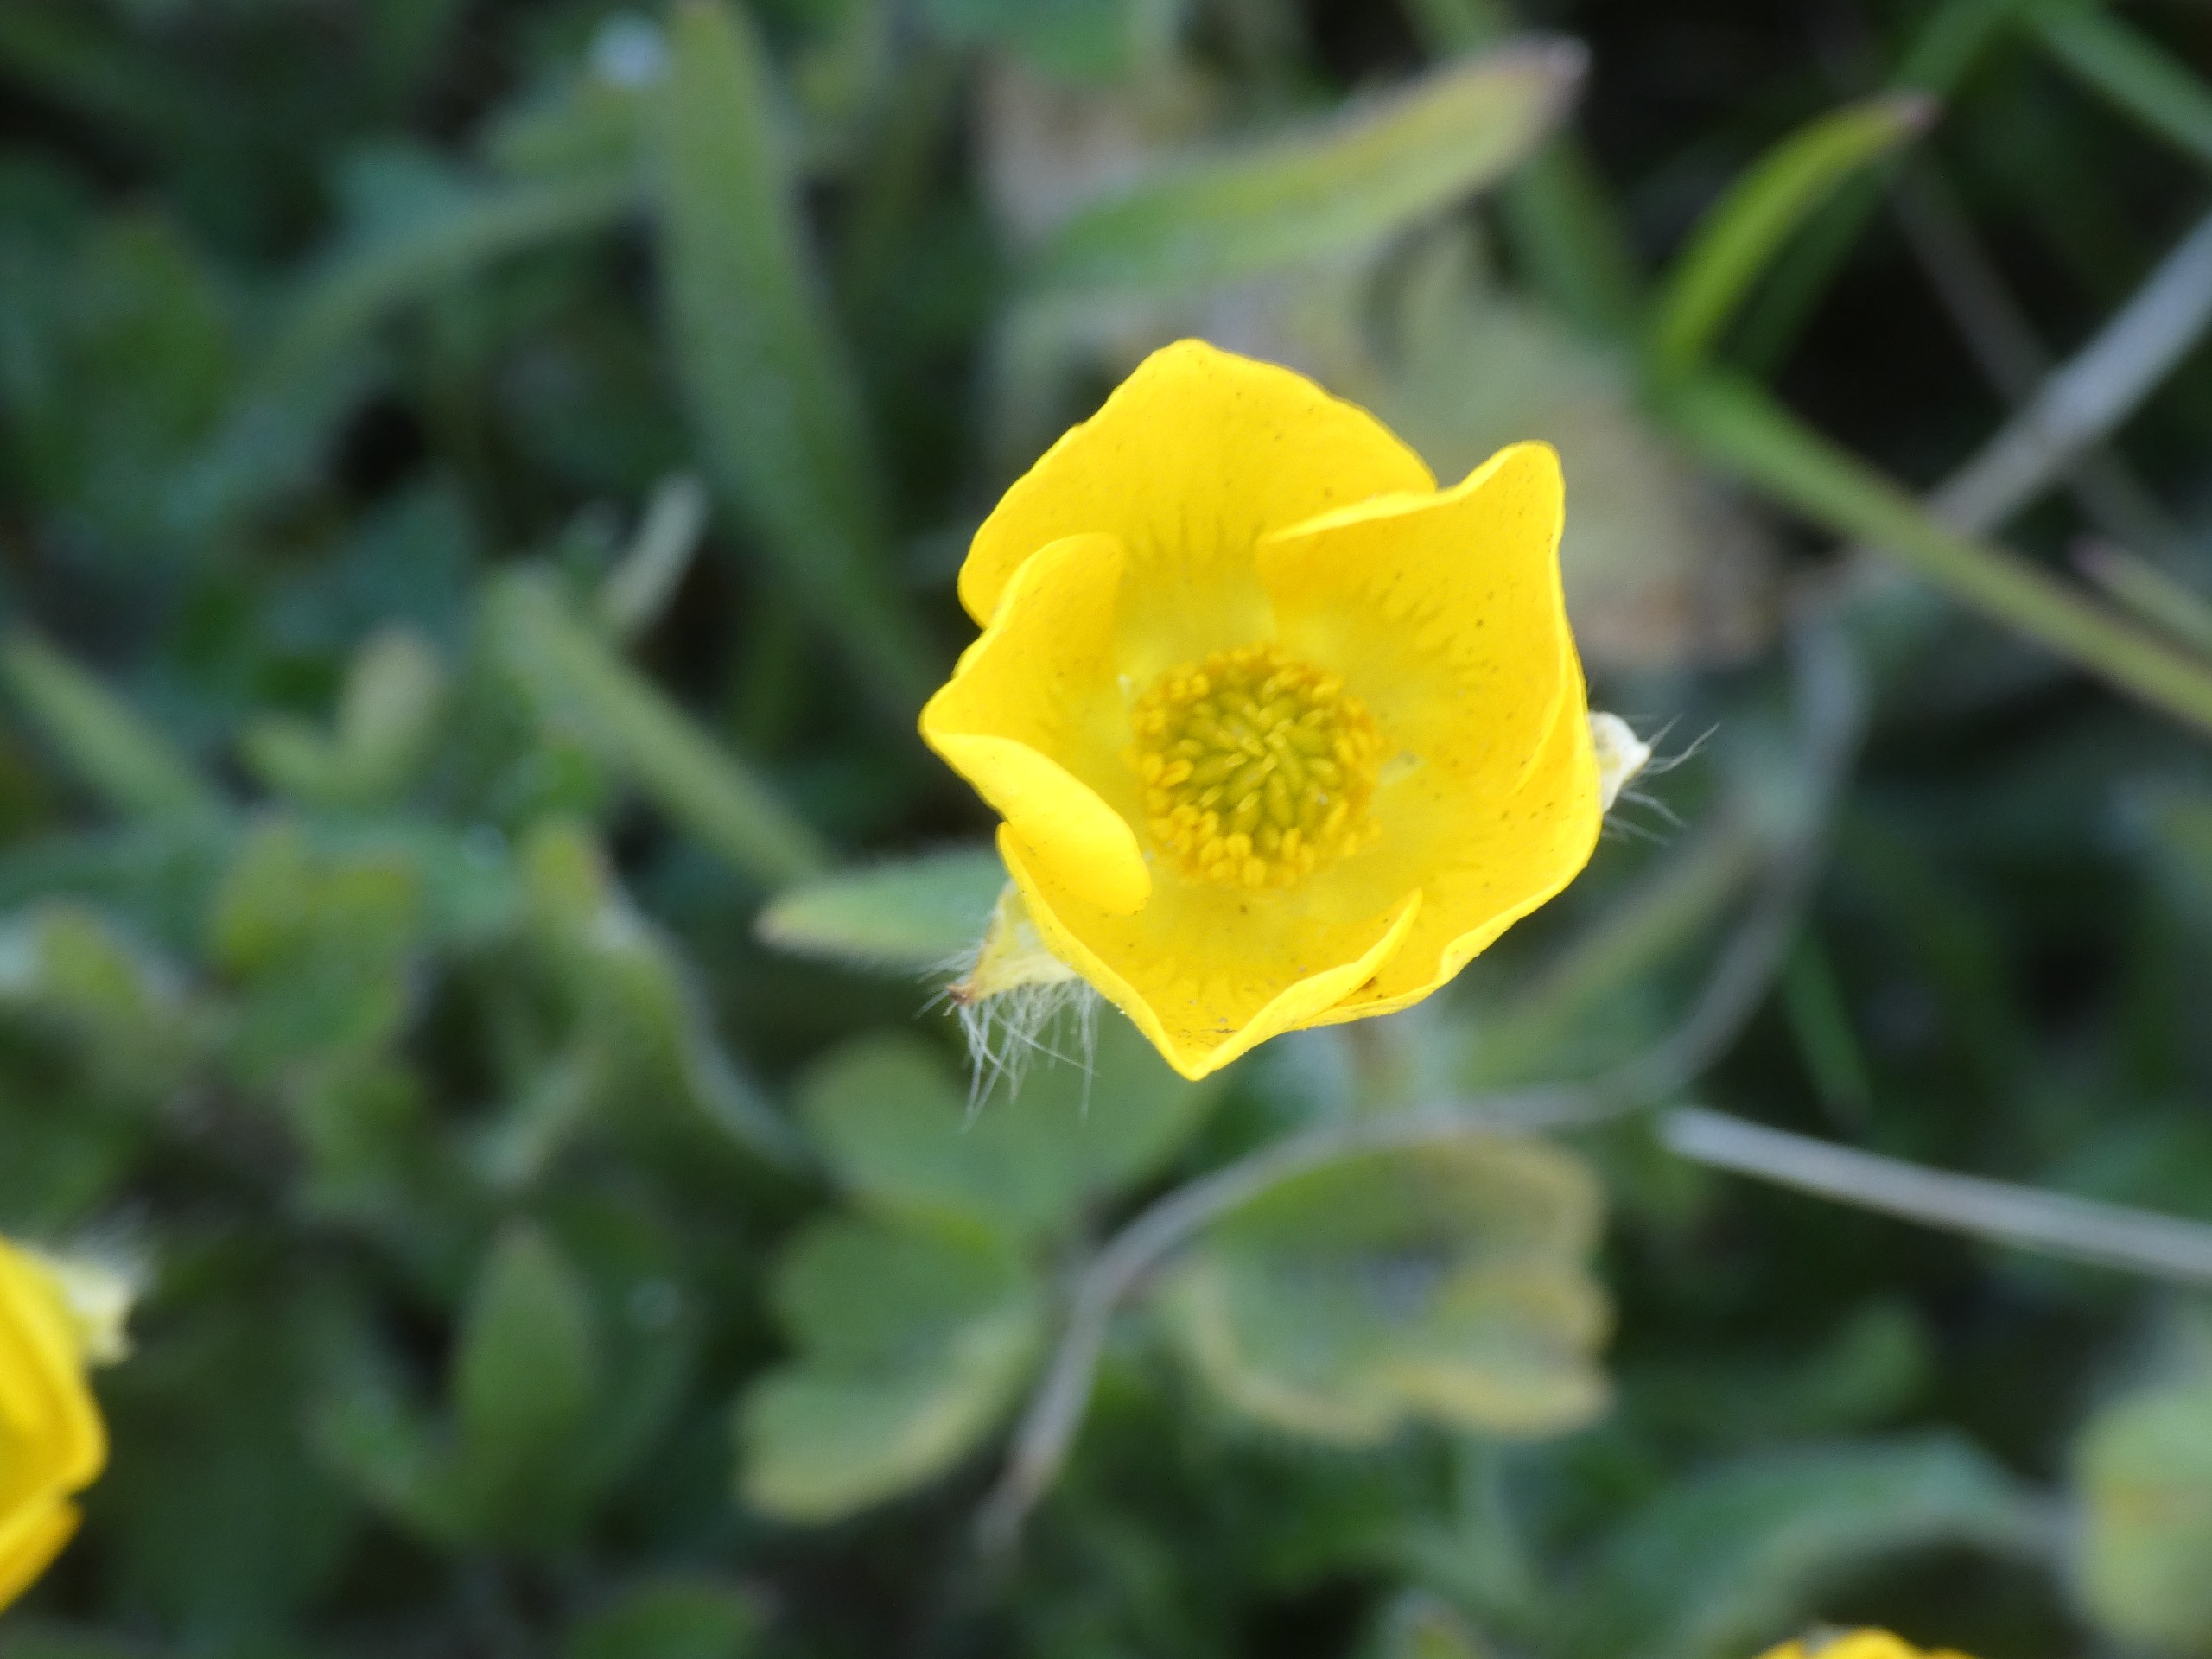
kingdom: Plantae
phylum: Tracheophyta
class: Magnoliopsida
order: Ranunculales
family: Ranunculaceae
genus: Ranunculus
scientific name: Ranunculus bulbosus
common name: Knold-ranunkel
